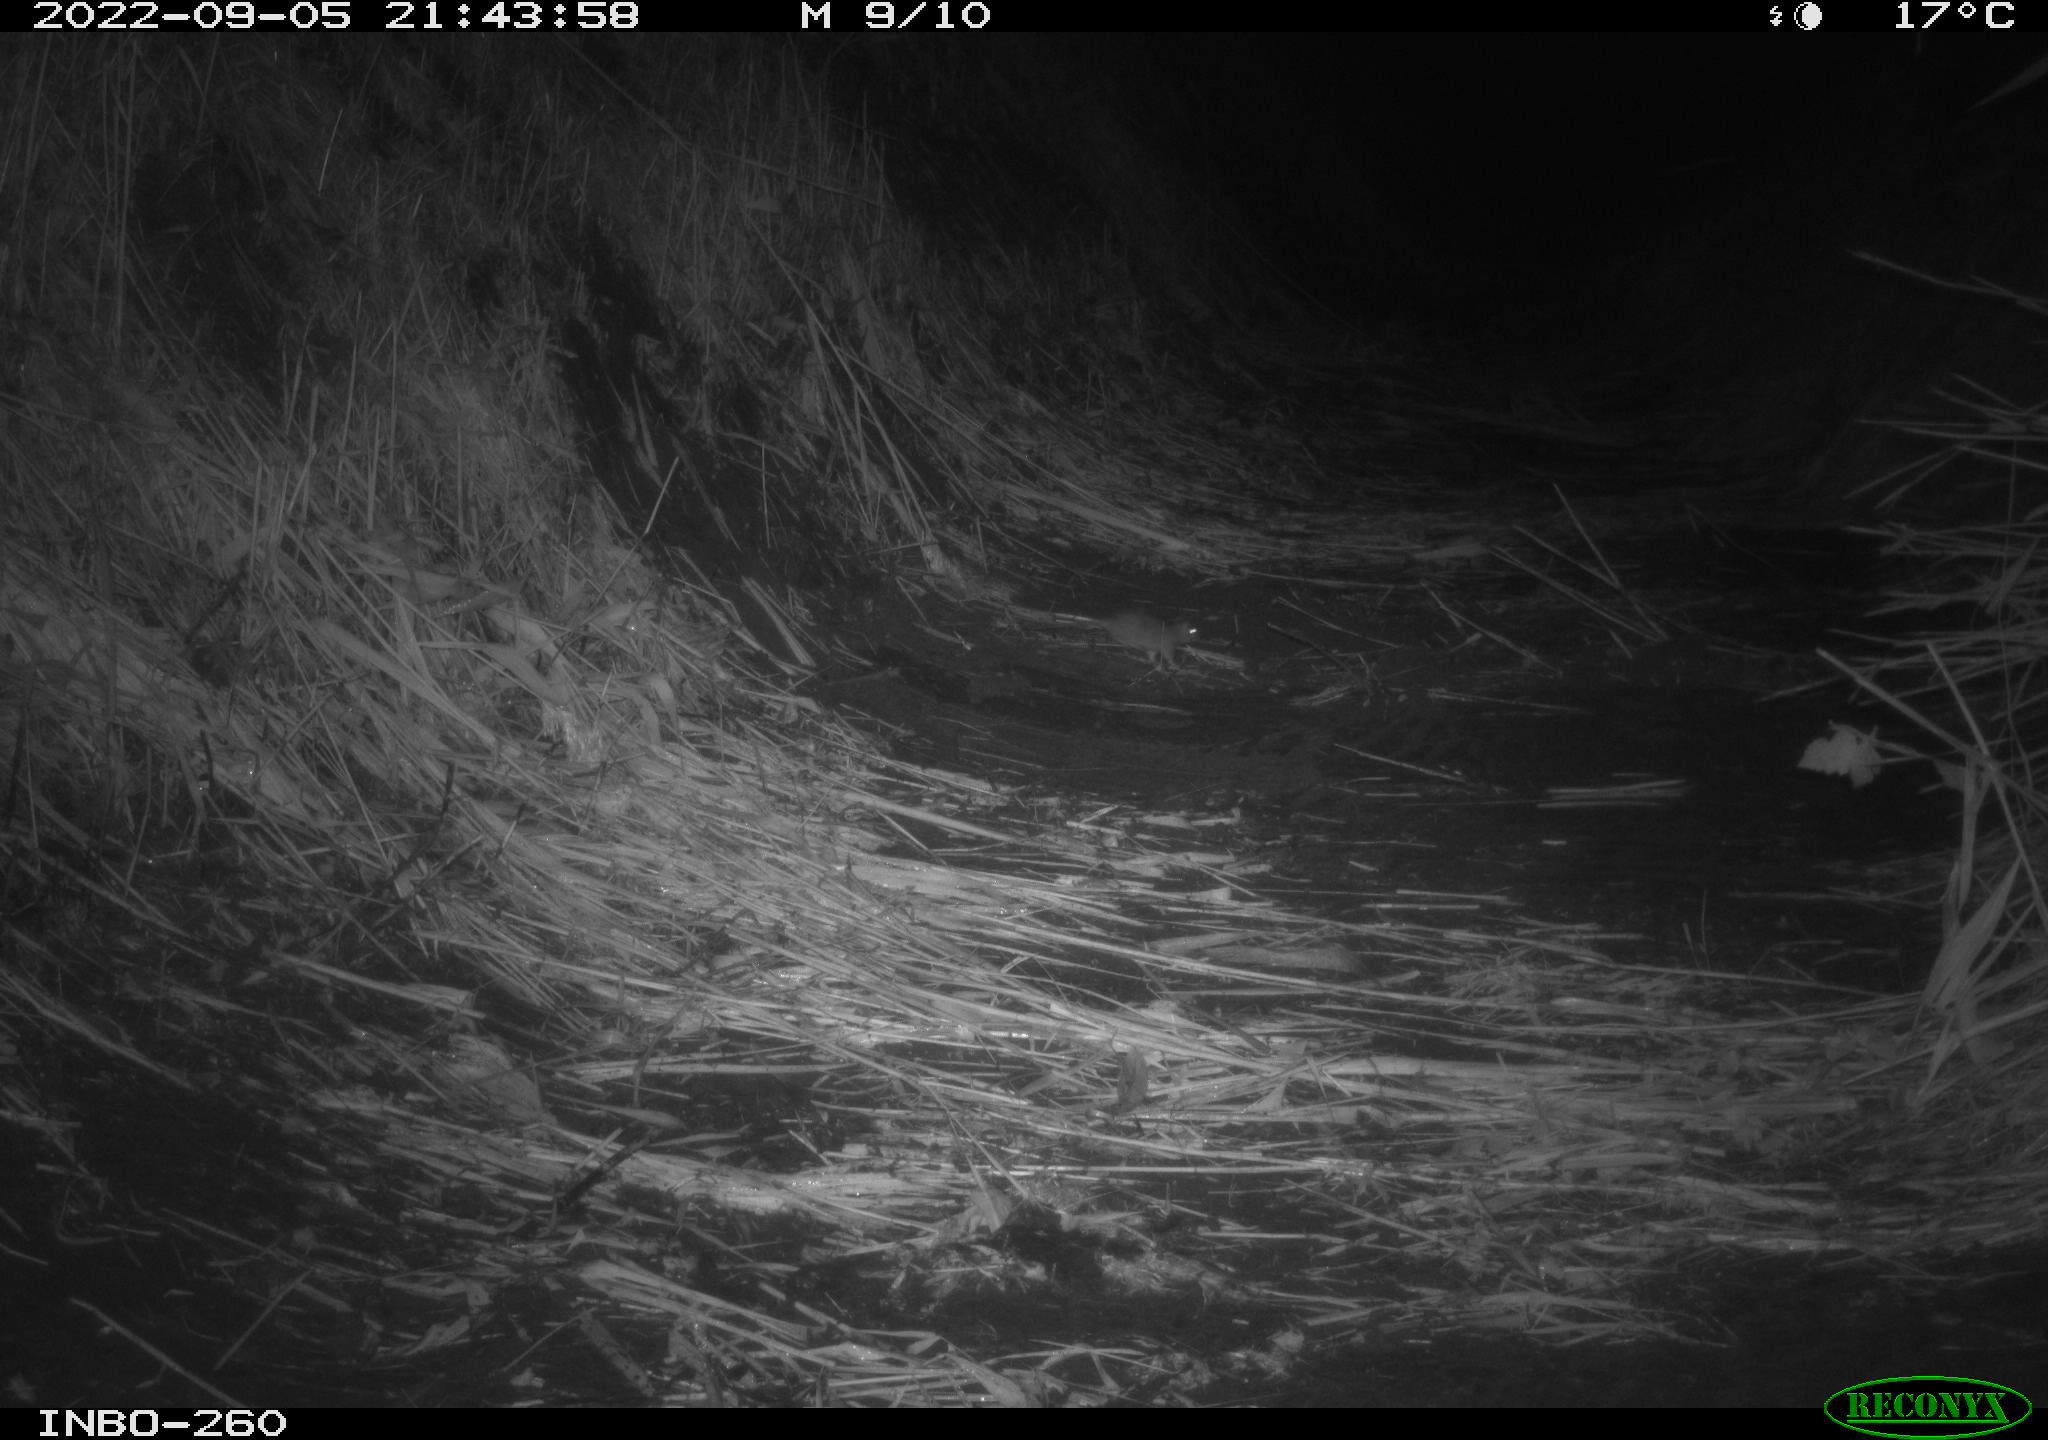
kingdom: Animalia
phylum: Chordata
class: Mammalia
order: Rodentia
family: Muridae
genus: Rattus
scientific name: Rattus norvegicus
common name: Brown rat
